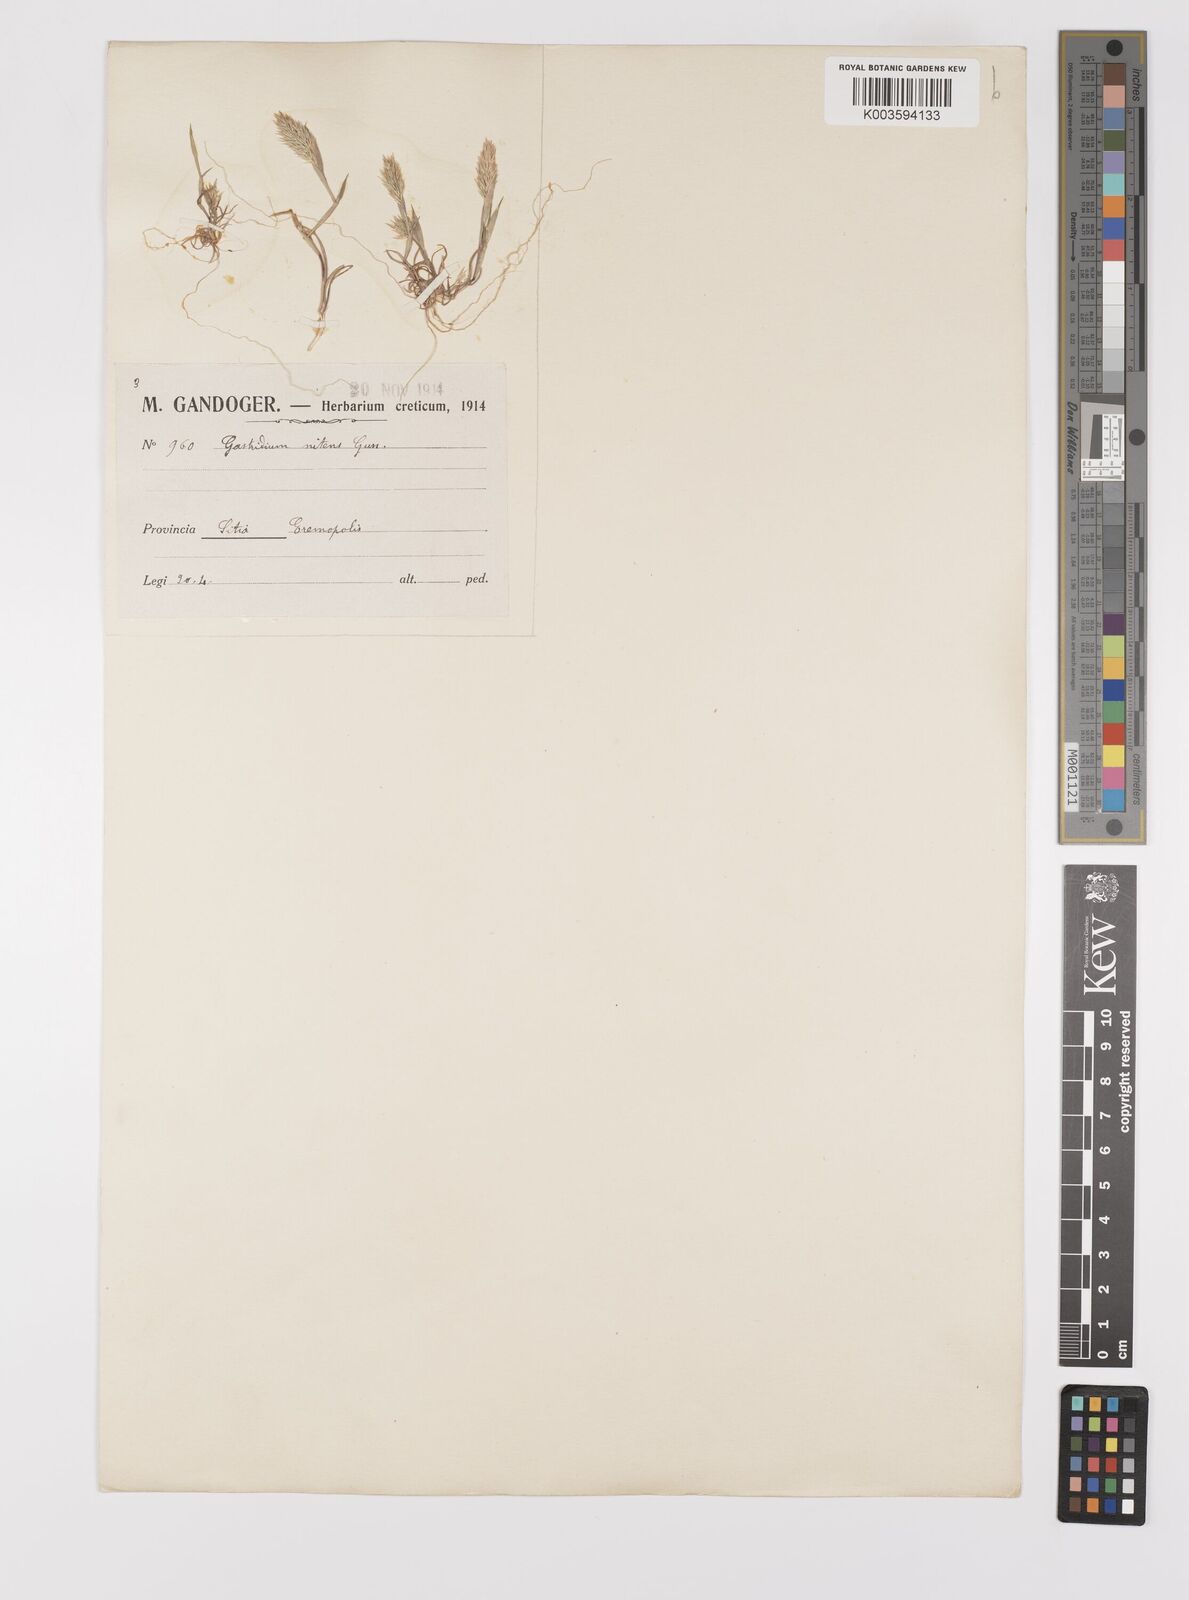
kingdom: Plantae
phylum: Tracheophyta
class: Liliopsida
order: Poales
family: Poaceae
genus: Triplachne
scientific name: Triplachne nitens
